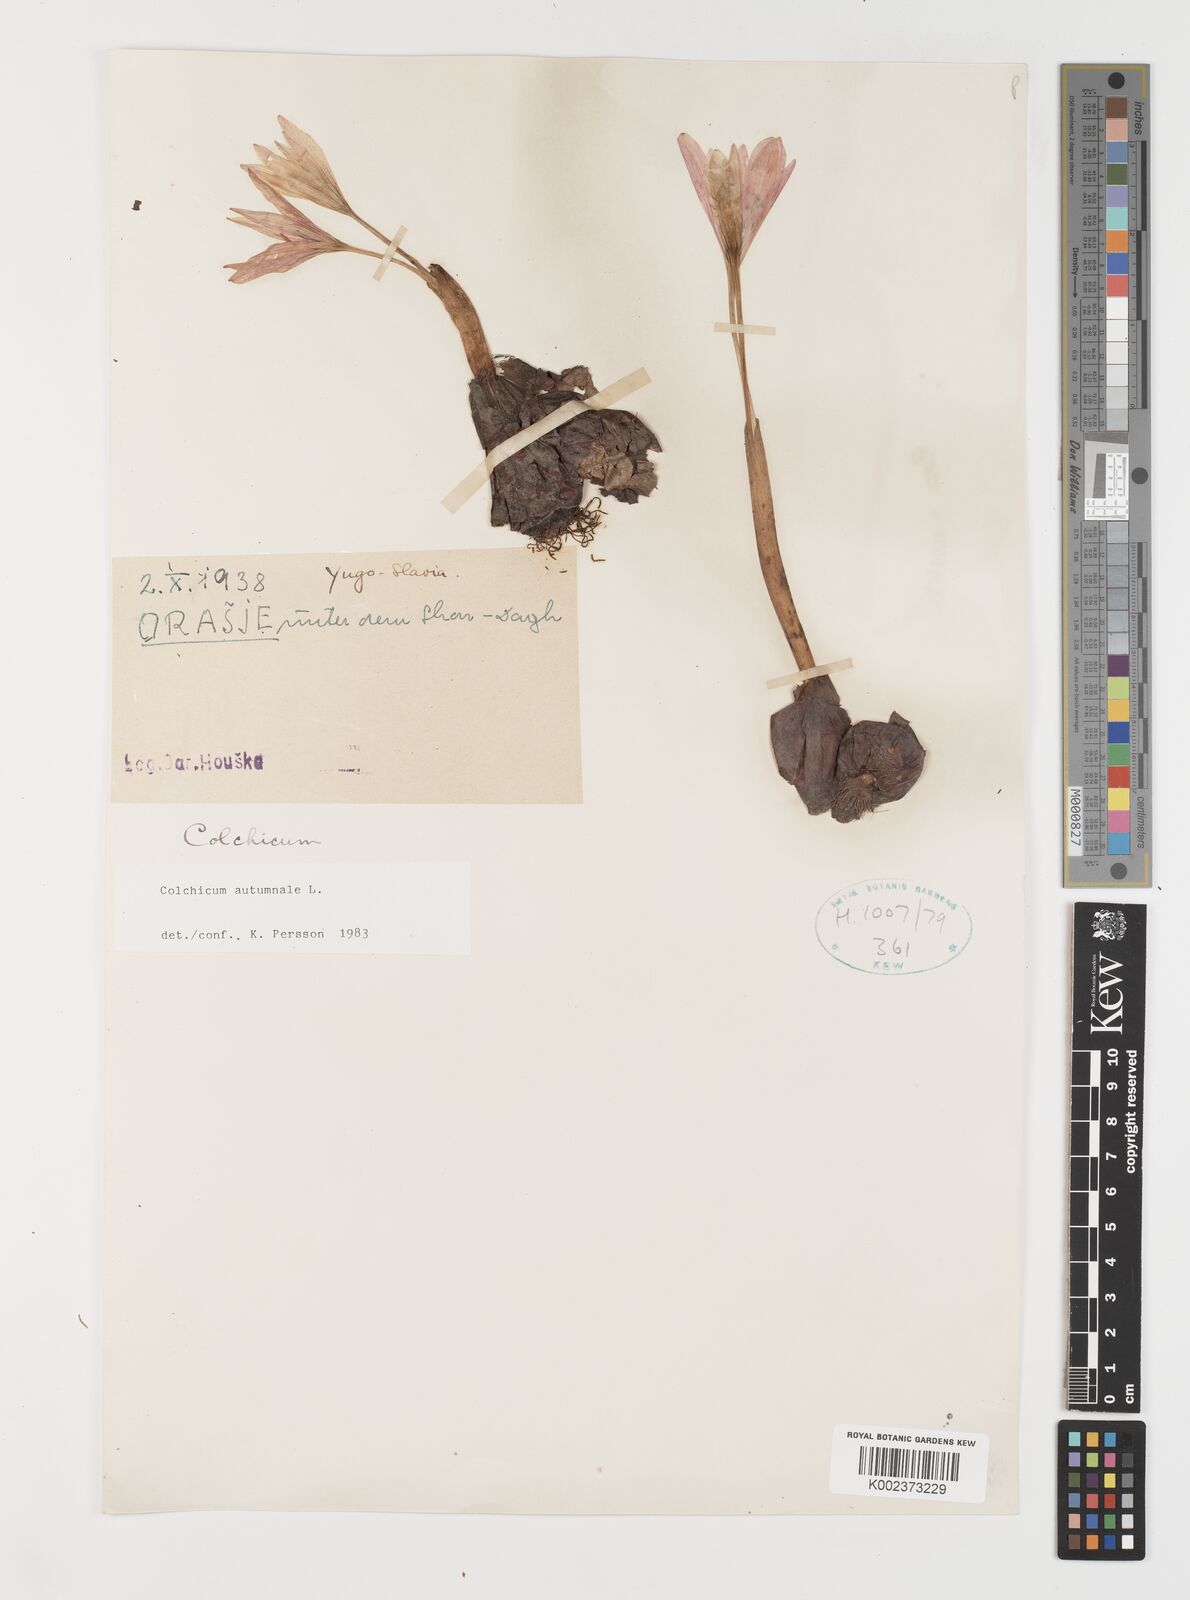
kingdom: Plantae
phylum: Tracheophyta
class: Liliopsida
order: Liliales
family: Colchicaceae
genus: Colchicum
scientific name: Colchicum autumnale
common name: Autumn crocus
